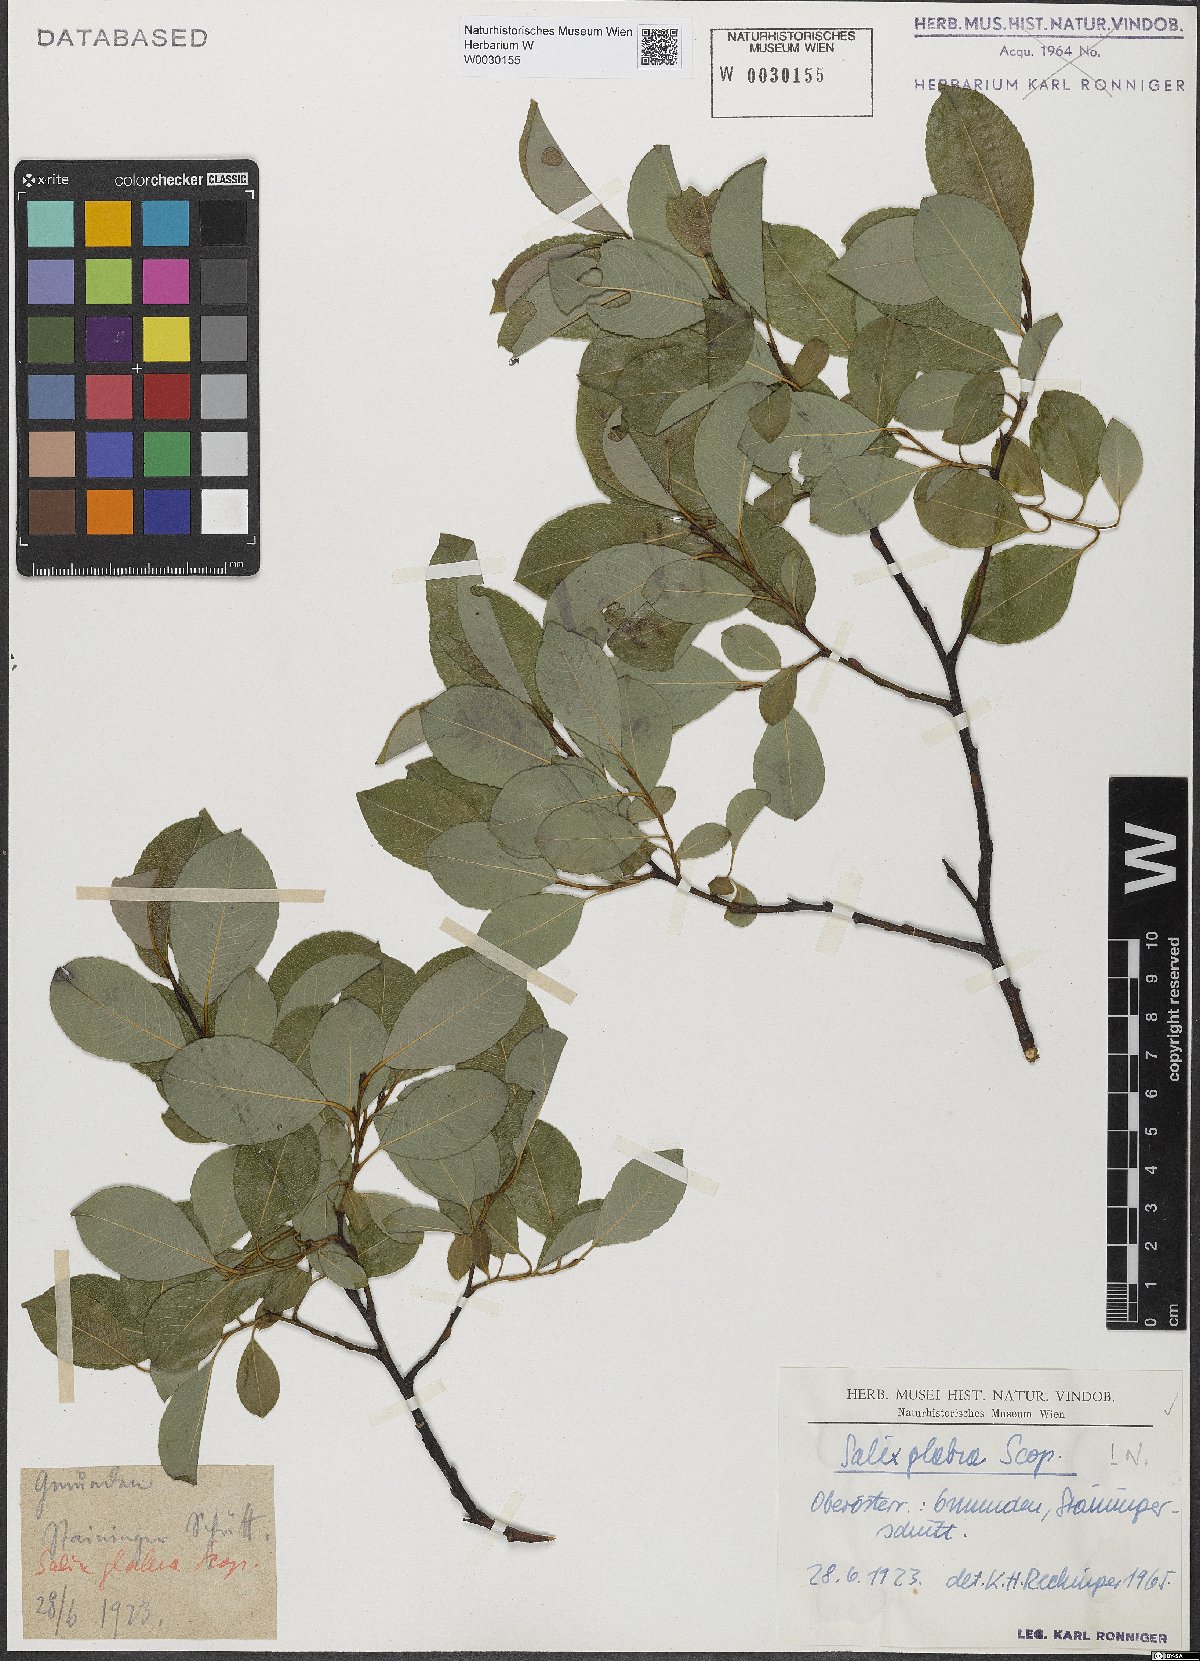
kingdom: Plantae
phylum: Tracheophyta
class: Magnoliopsida
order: Malpighiales
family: Salicaceae
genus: Salix
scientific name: Salix glabra
